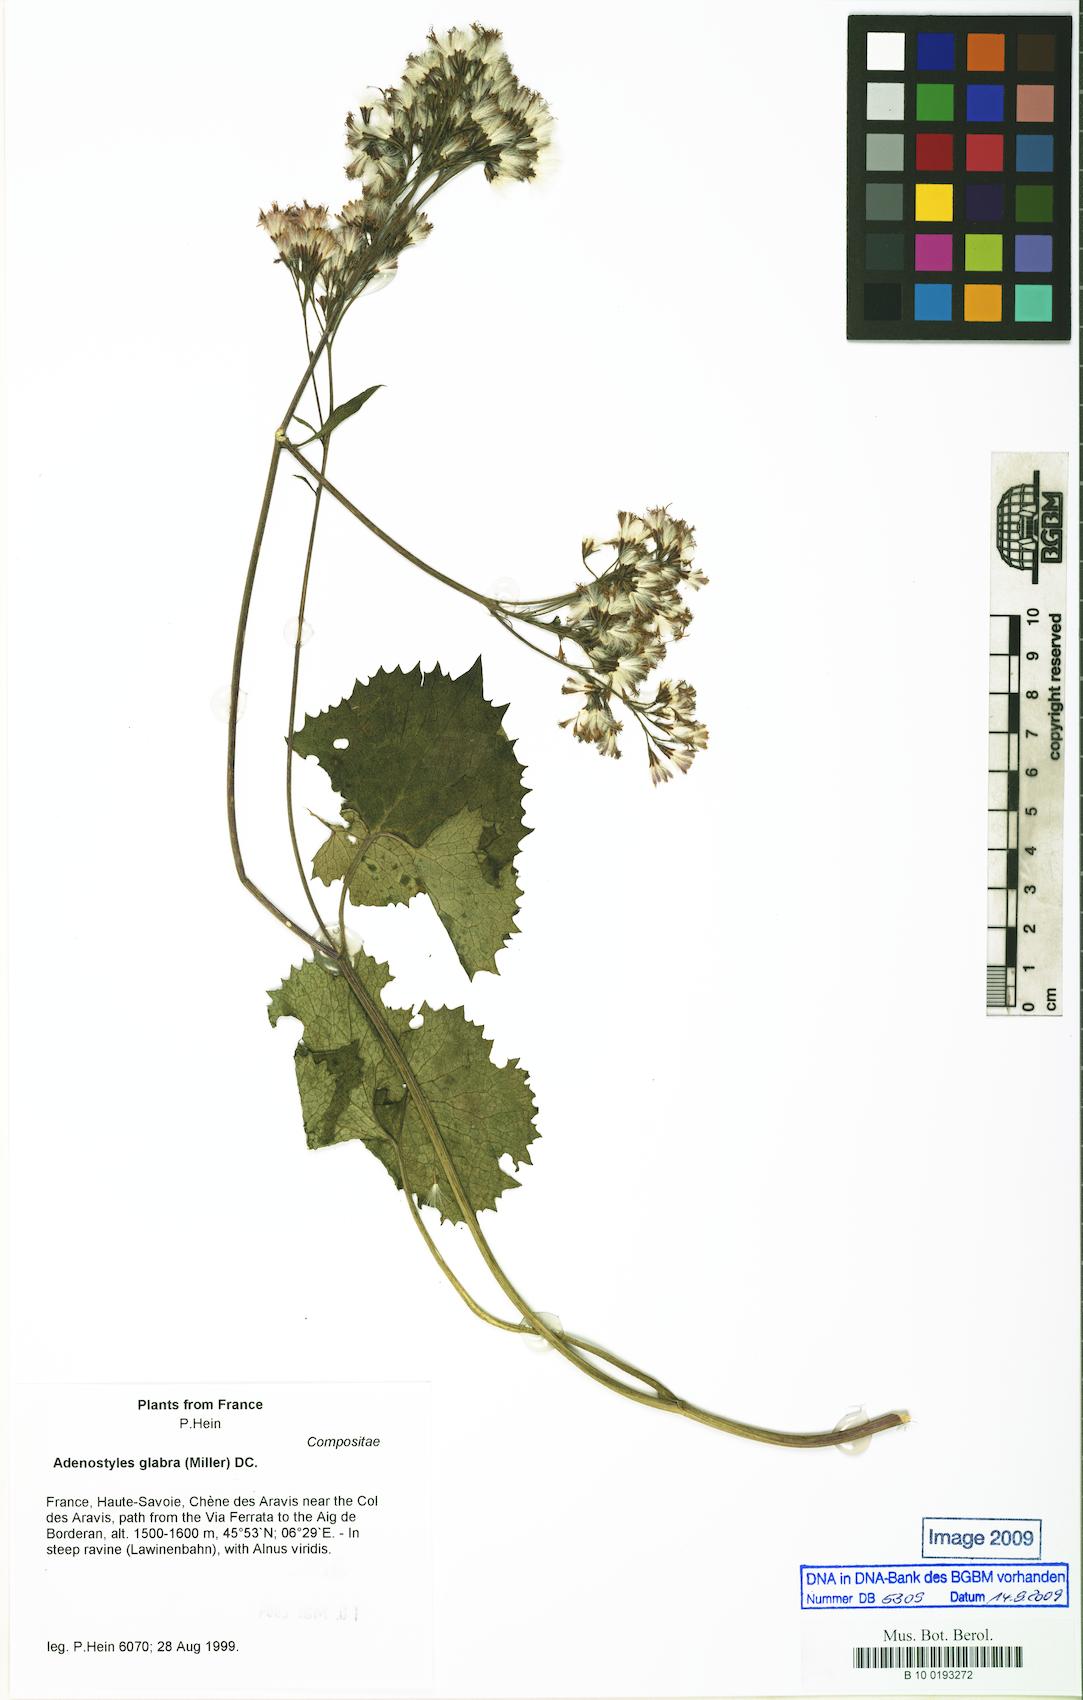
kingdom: Plantae
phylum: Tracheophyta
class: Magnoliopsida
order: Asterales
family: Asteraceae
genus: Adenostyles
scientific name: Adenostyles alpina
